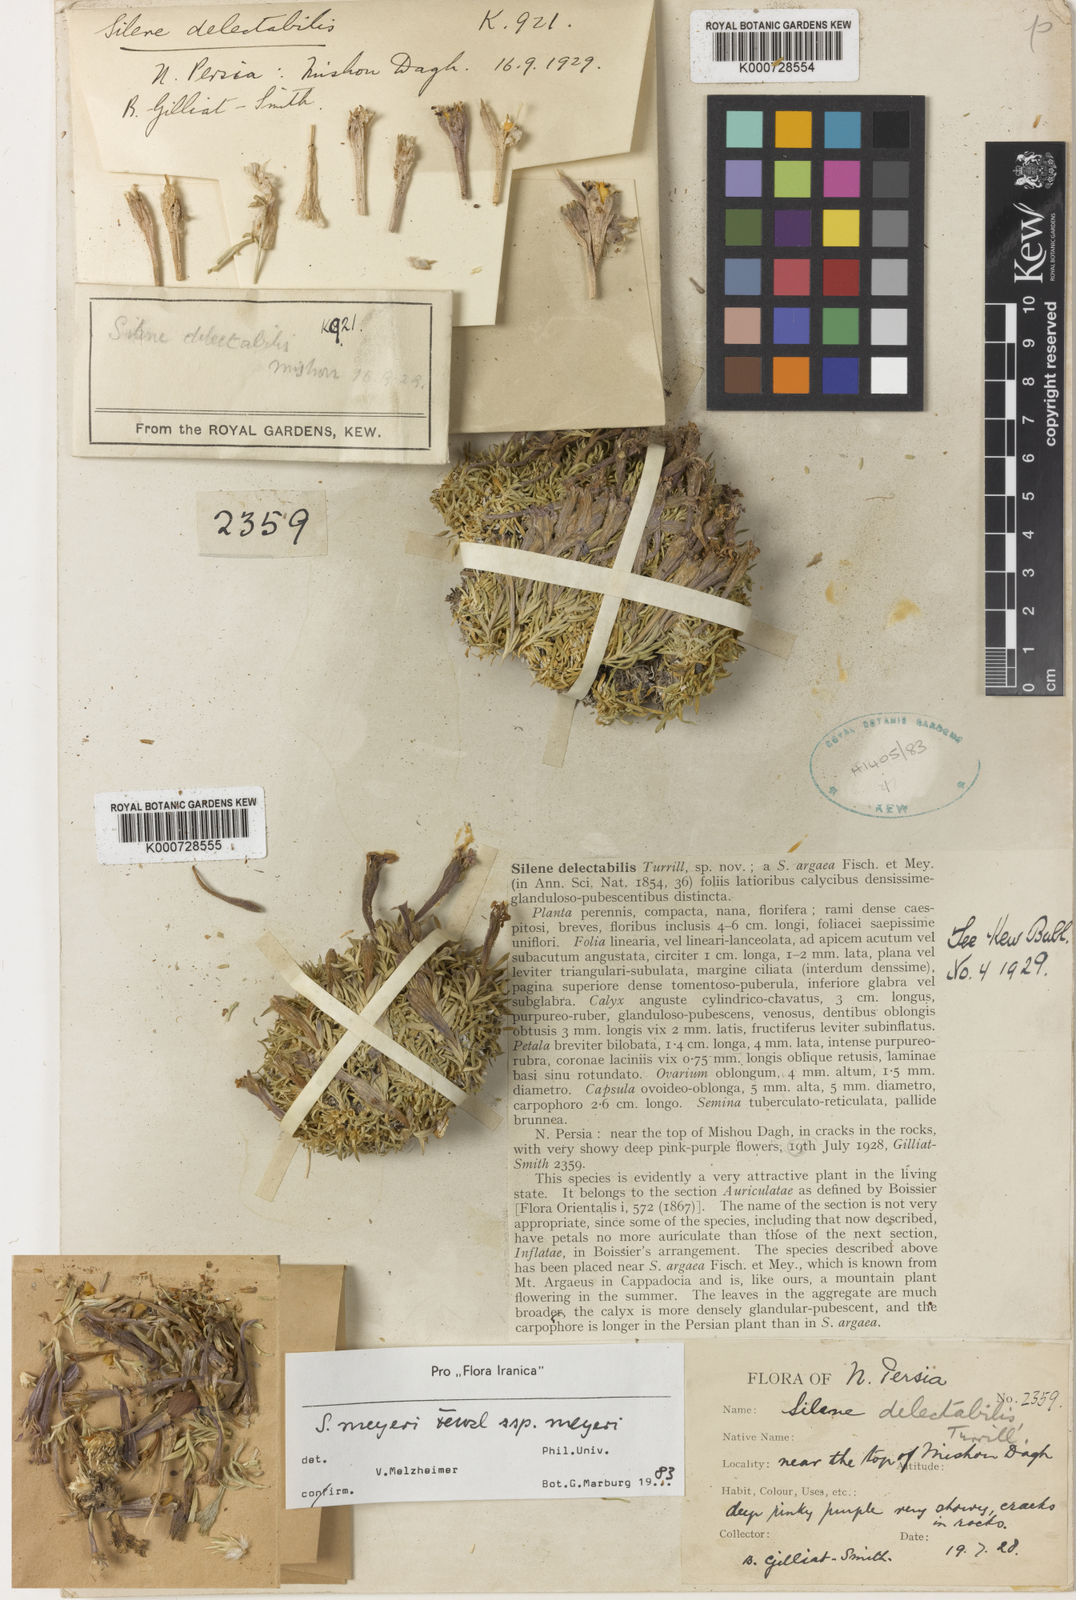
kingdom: Plantae
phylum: Tracheophyta
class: Magnoliopsida
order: Caryophyllales
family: Caryophyllaceae
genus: Silene
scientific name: Silene meyeri
